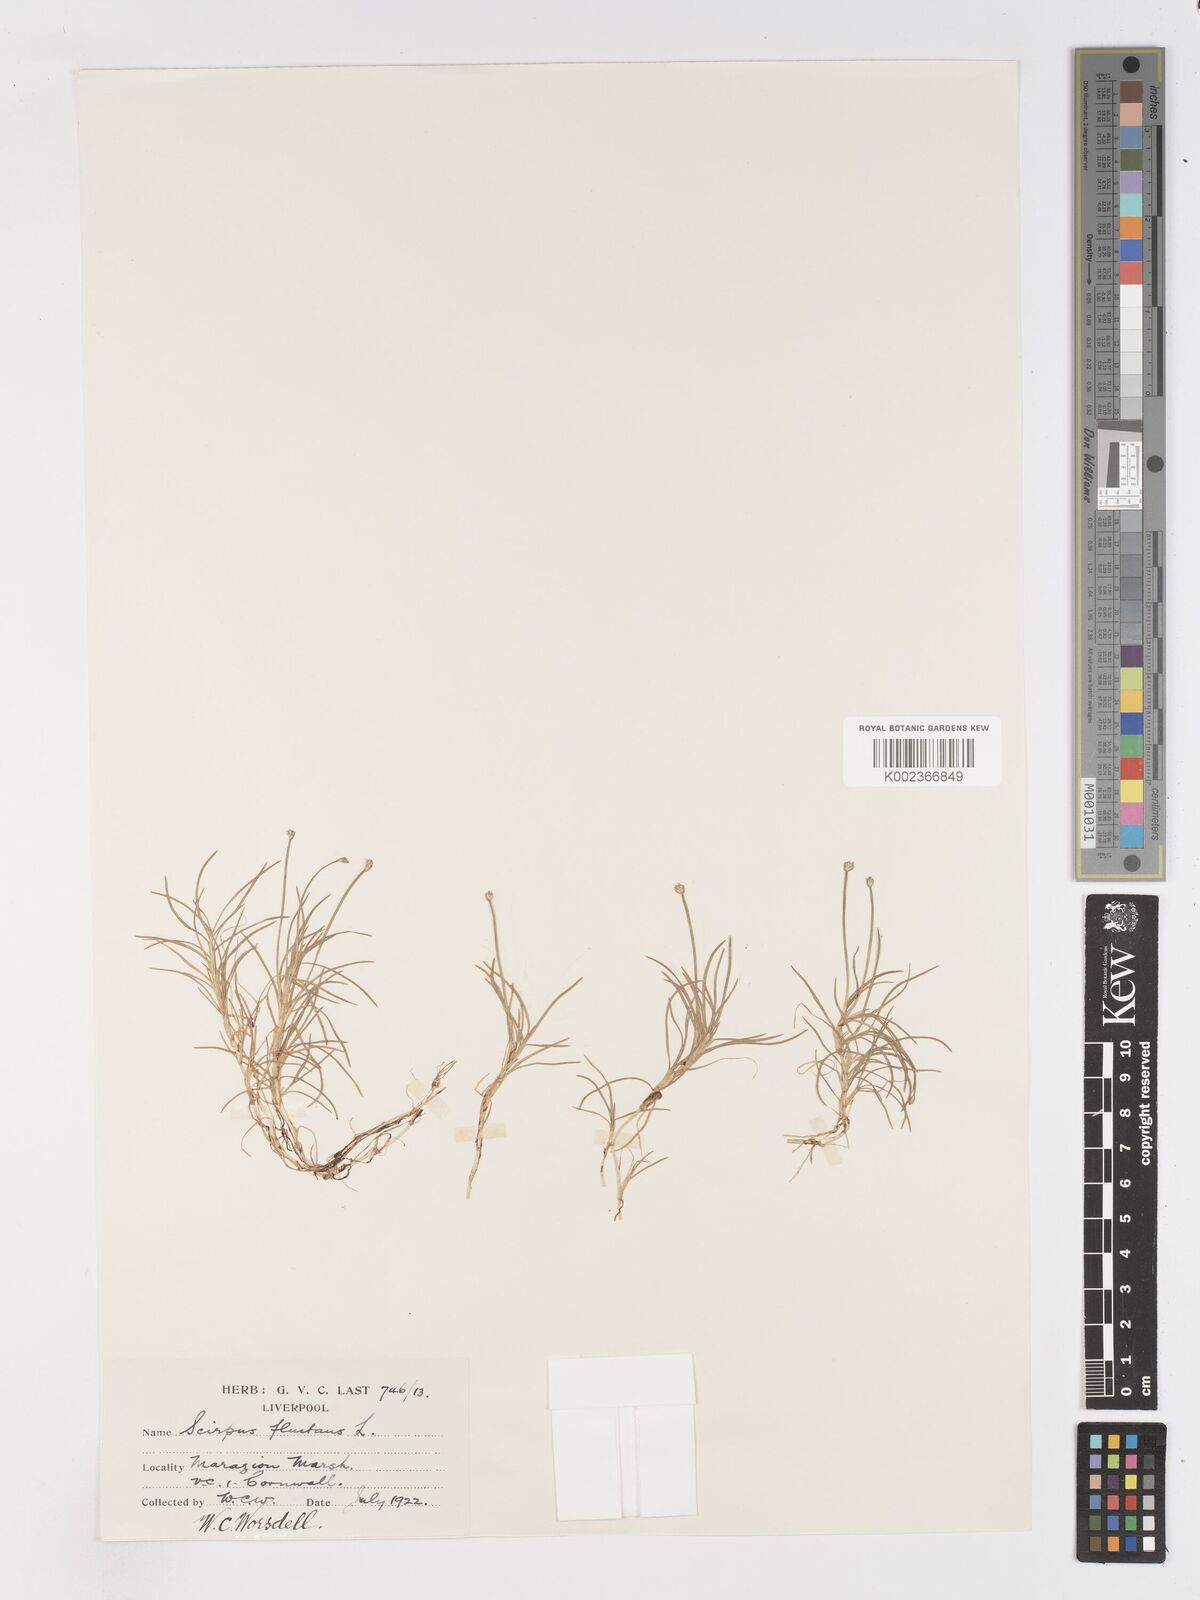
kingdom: Plantae
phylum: Tracheophyta
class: Liliopsida
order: Poales
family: Cyperaceae
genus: Isolepis
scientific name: Isolepis fluitans
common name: Floating club-rush
